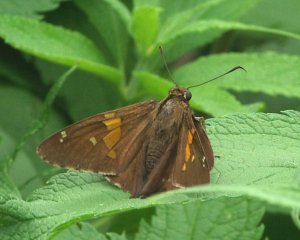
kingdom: Animalia
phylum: Arthropoda
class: Insecta
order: Lepidoptera
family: Hesperiidae
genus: Epargyreus
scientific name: Epargyreus clarus
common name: Silver-spotted Skipper
